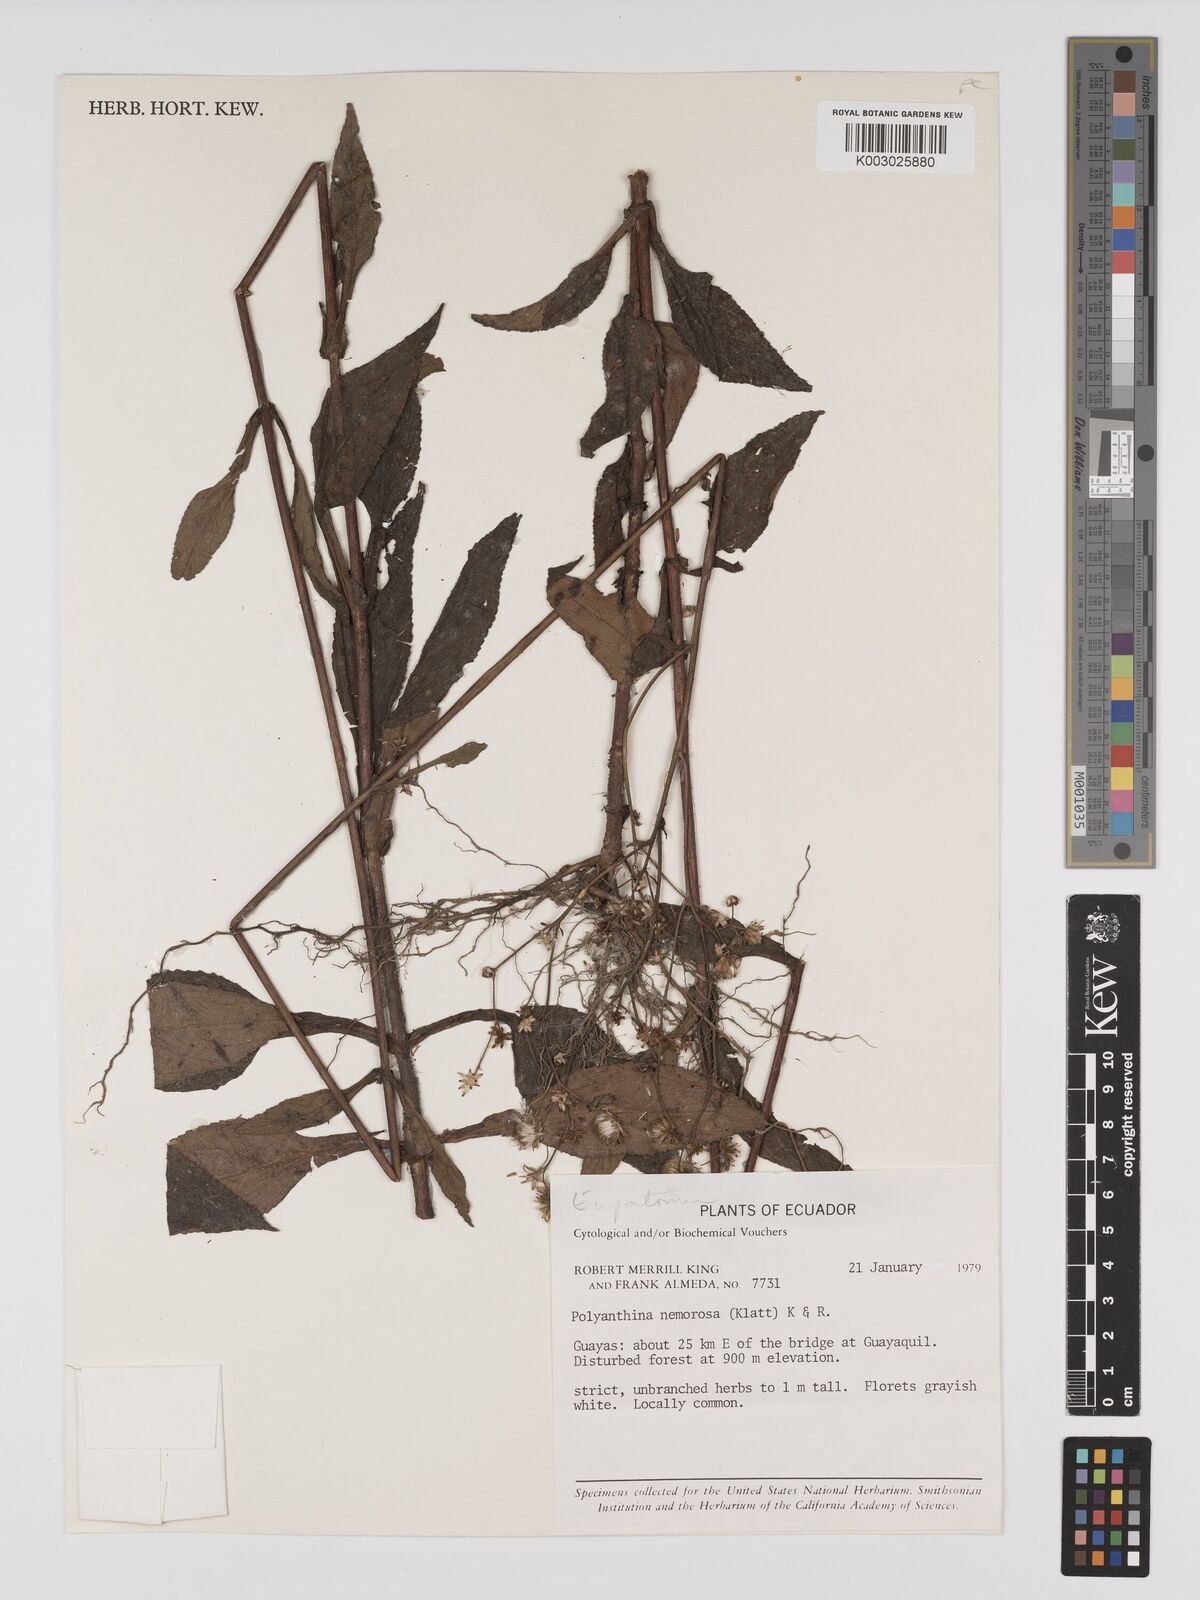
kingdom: Plantae
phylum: Tracheophyta
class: Magnoliopsida
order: Asterales
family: Asteraceae
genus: Polyanthina
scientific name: Polyanthina nemorosa
